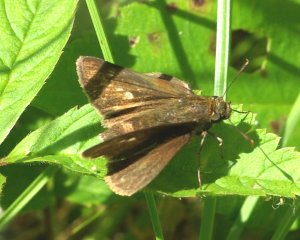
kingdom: Animalia
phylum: Arthropoda
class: Insecta
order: Lepidoptera
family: Hesperiidae
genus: Euphyes
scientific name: Euphyes vestris
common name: Dun Skipper
